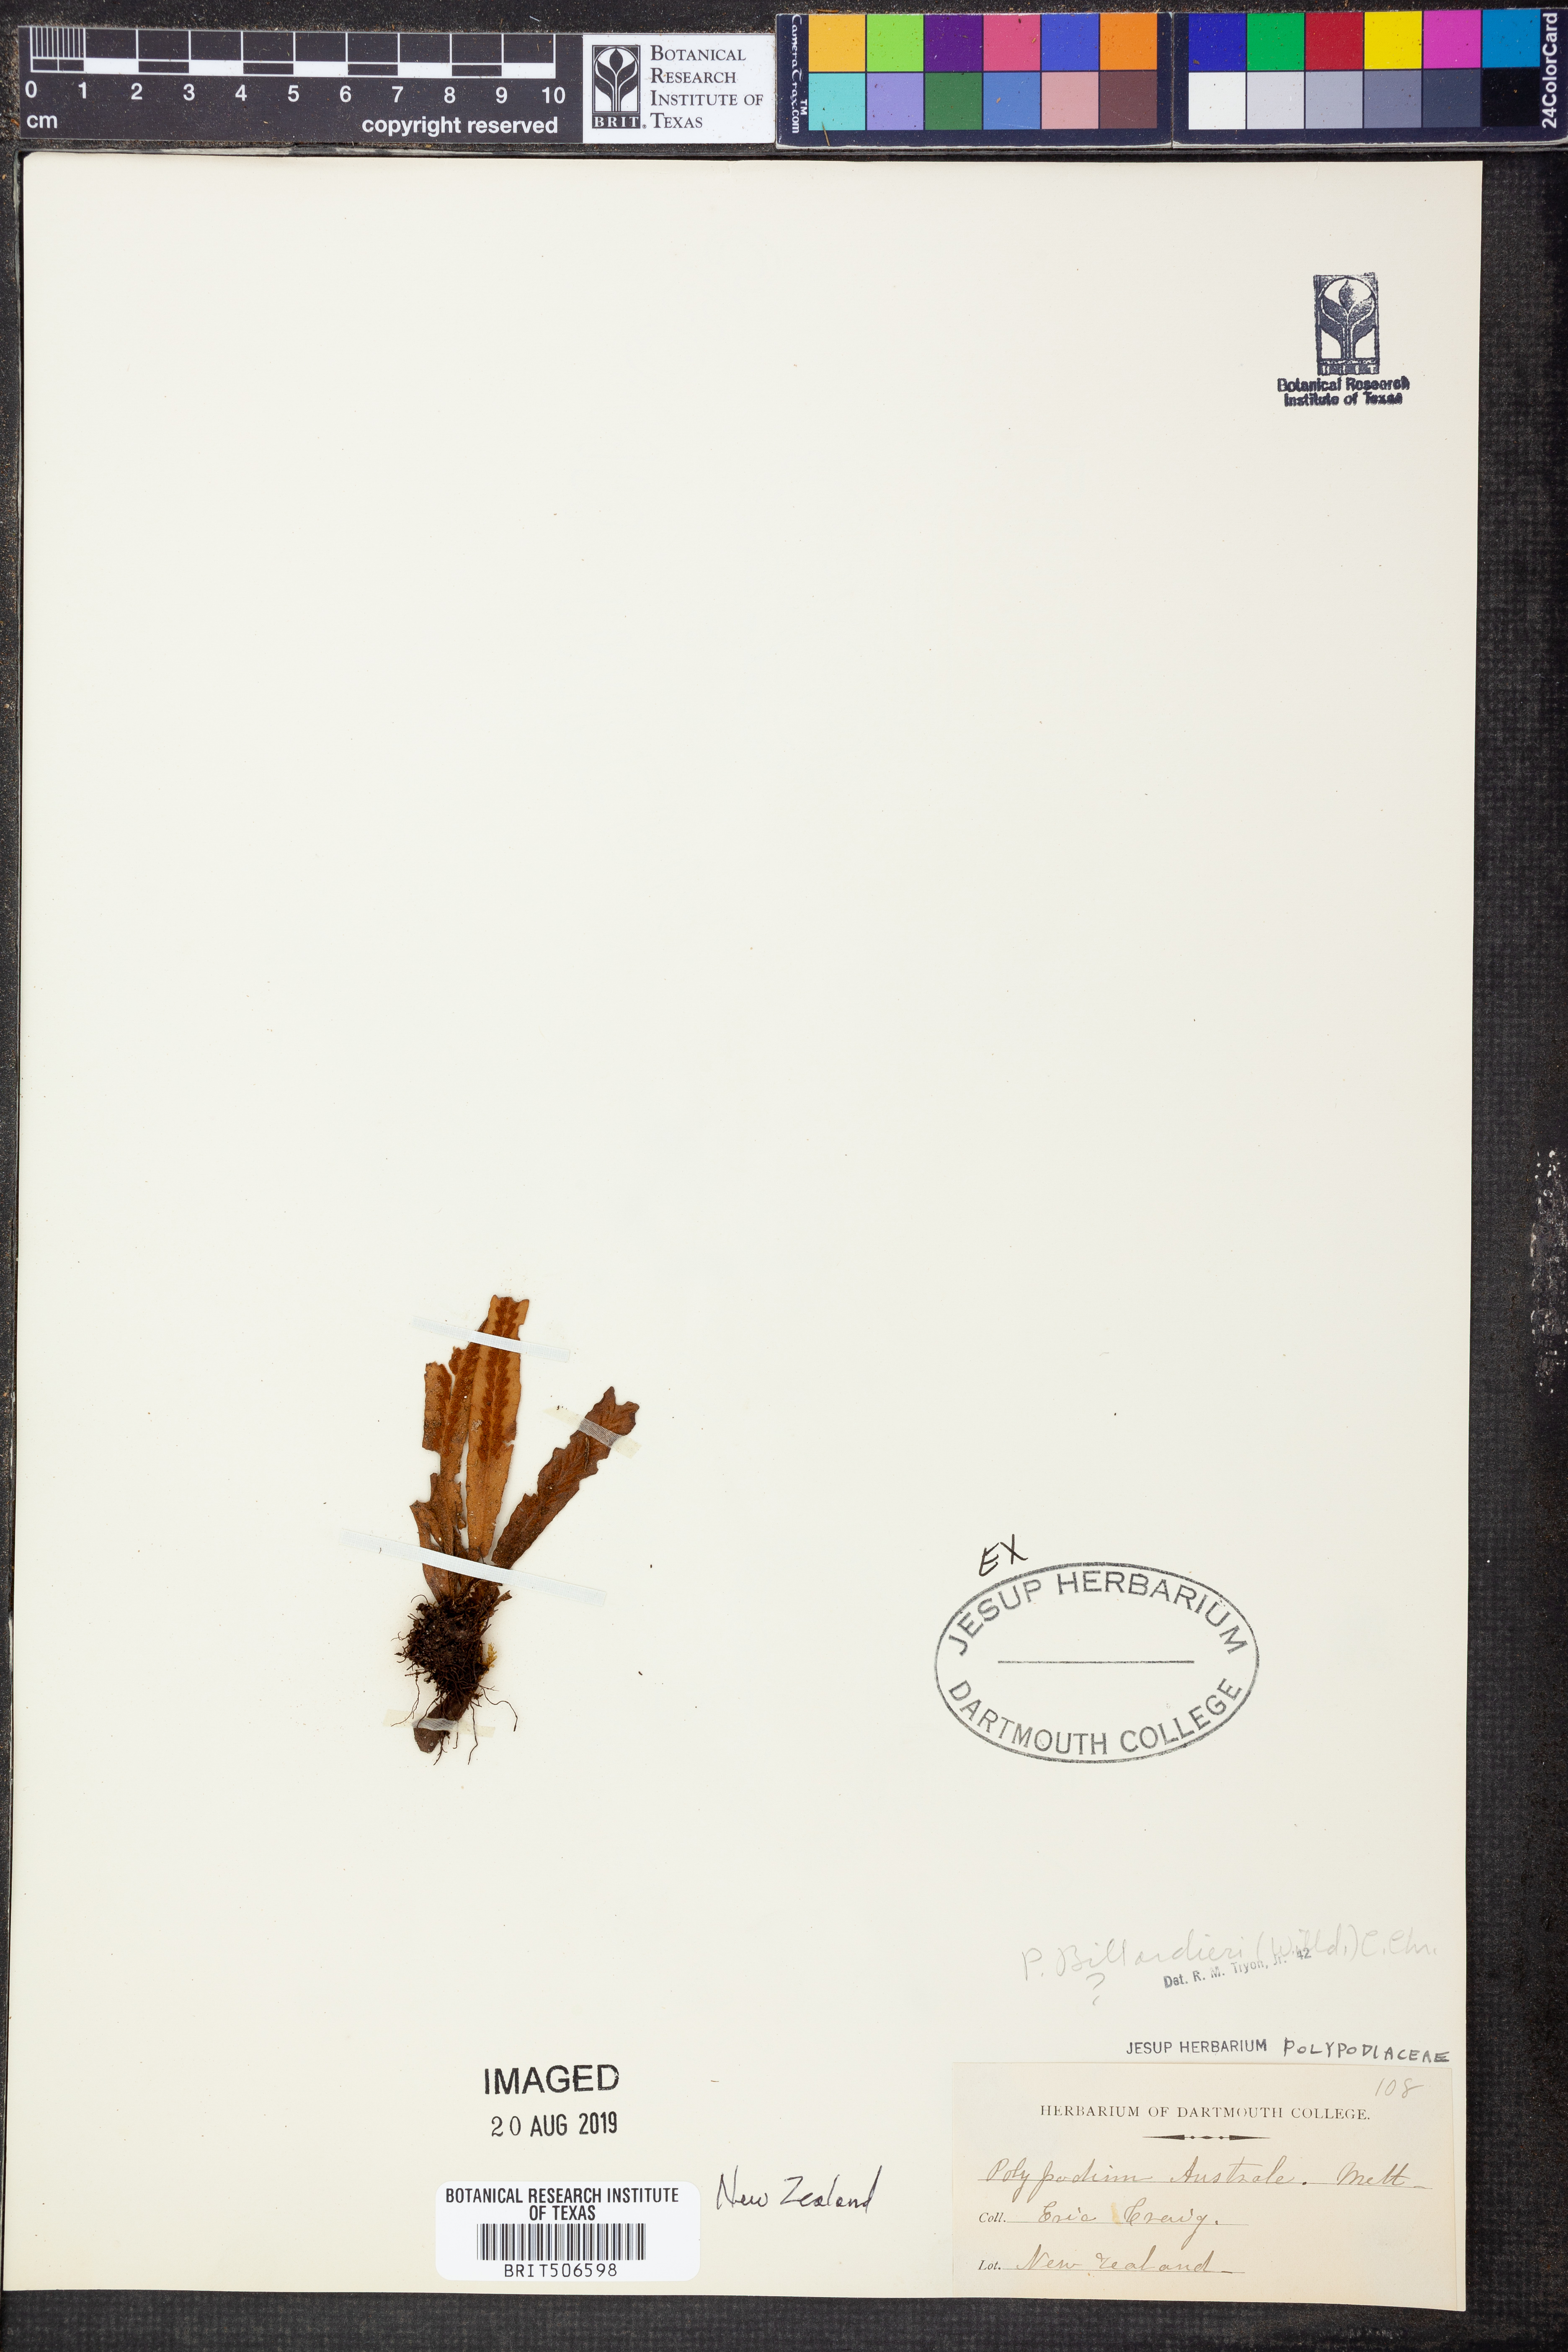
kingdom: Plantae
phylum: Tracheophyta
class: Polypodiopsida
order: Polypodiales
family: Polypodiaceae
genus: Lecanopteris
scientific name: Lecanopteris pustulata
